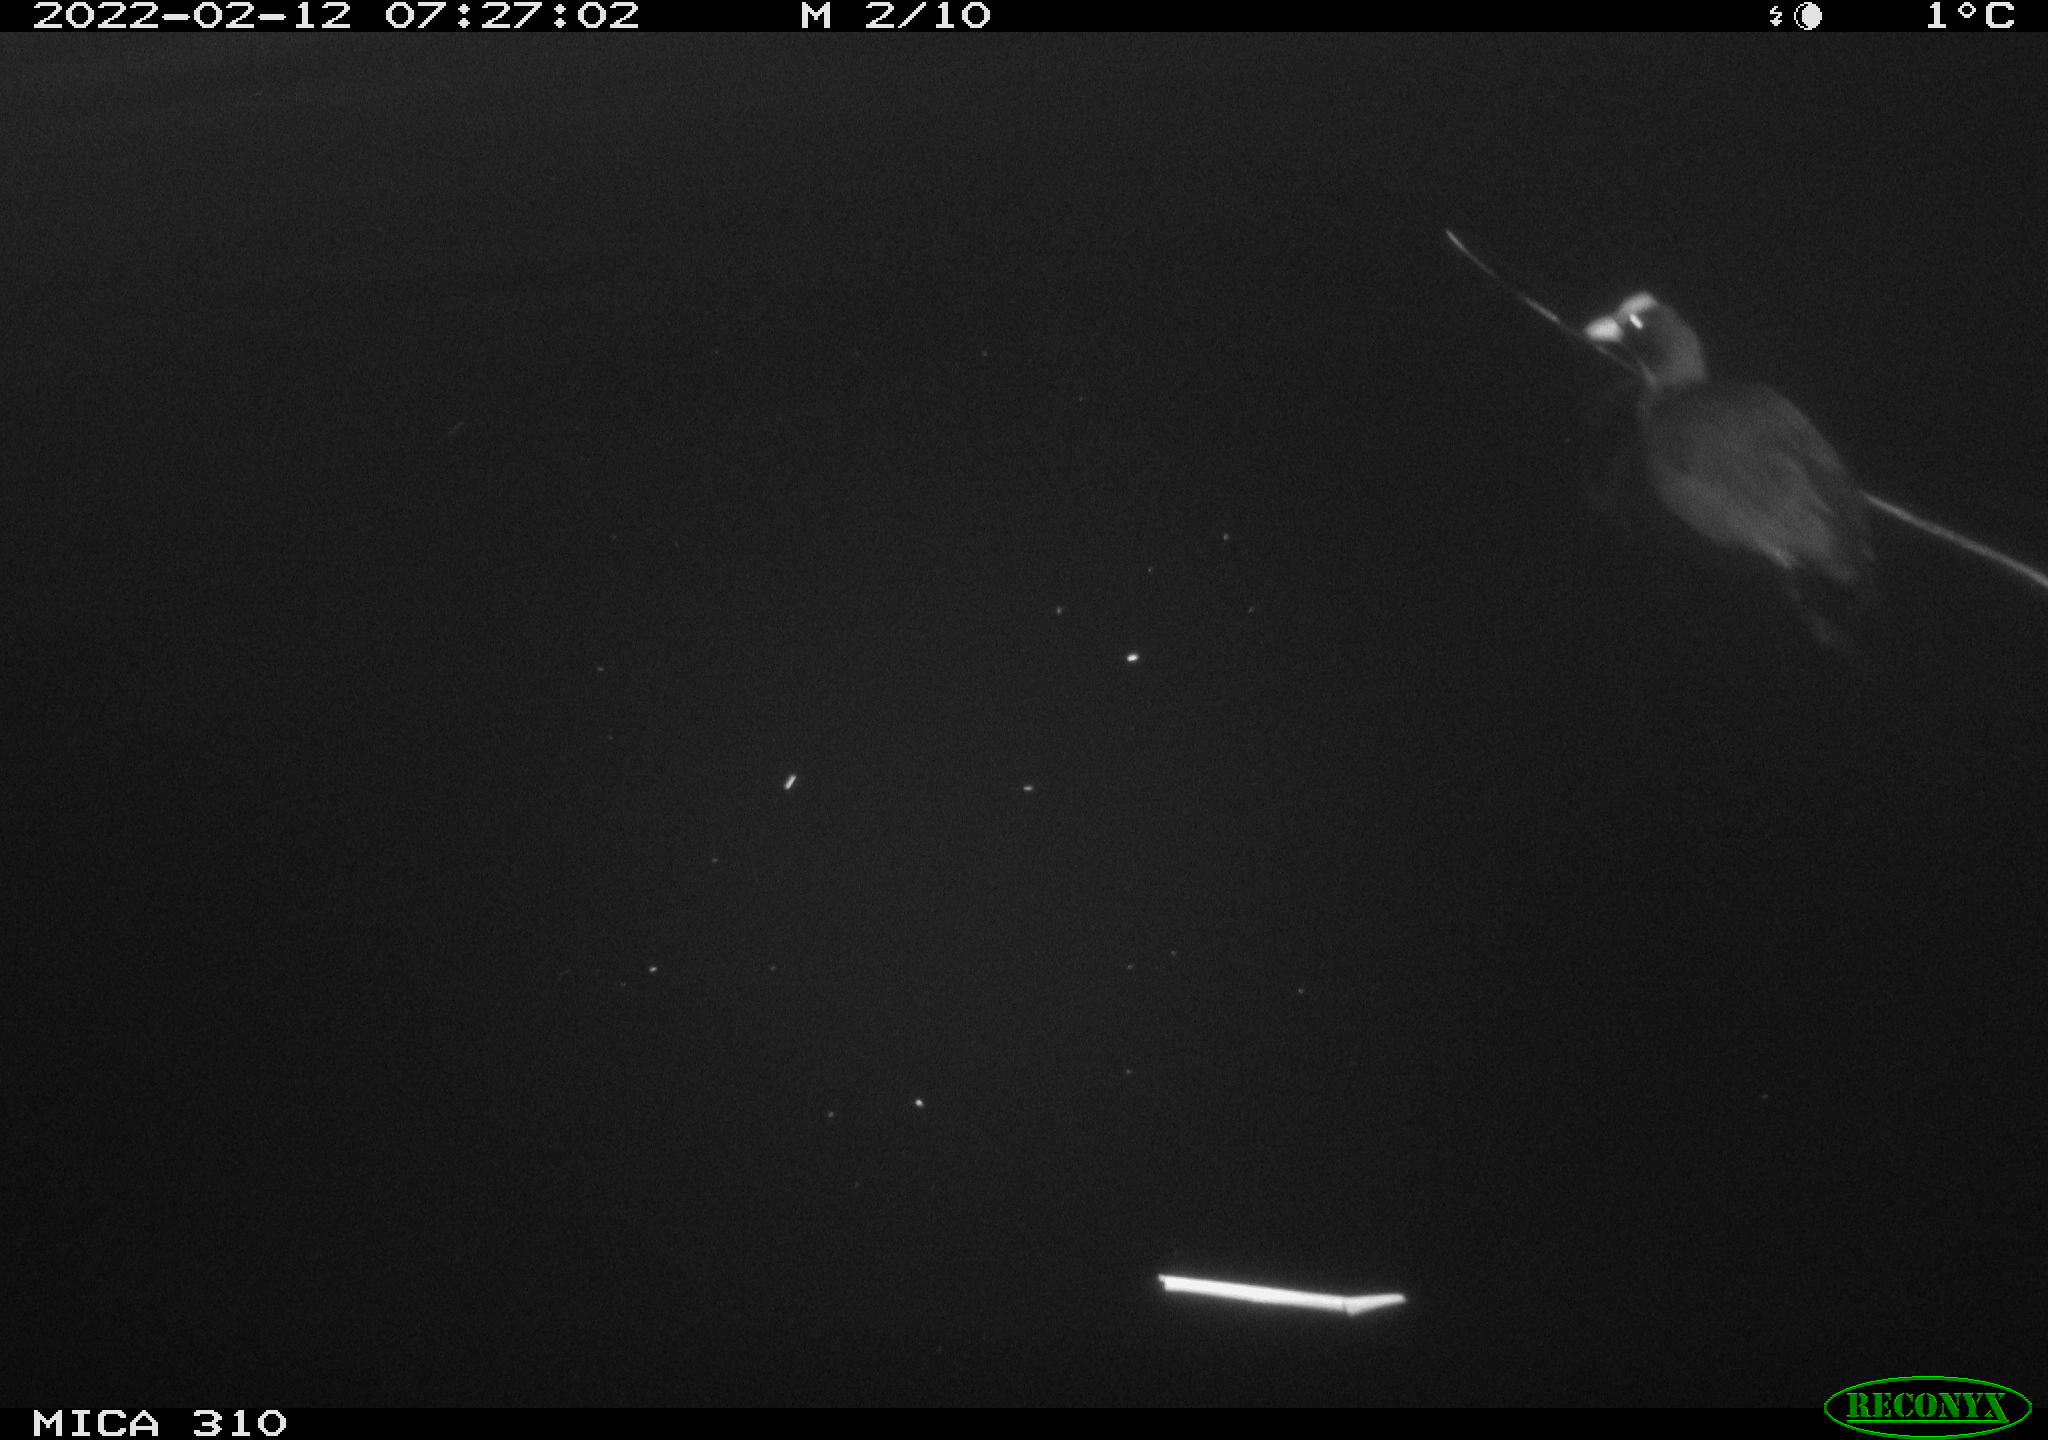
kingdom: Animalia
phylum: Chordata
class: Aves
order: Gruiformes
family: Rallidae
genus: Fulica
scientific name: Fulica atra
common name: Eurasian coot
